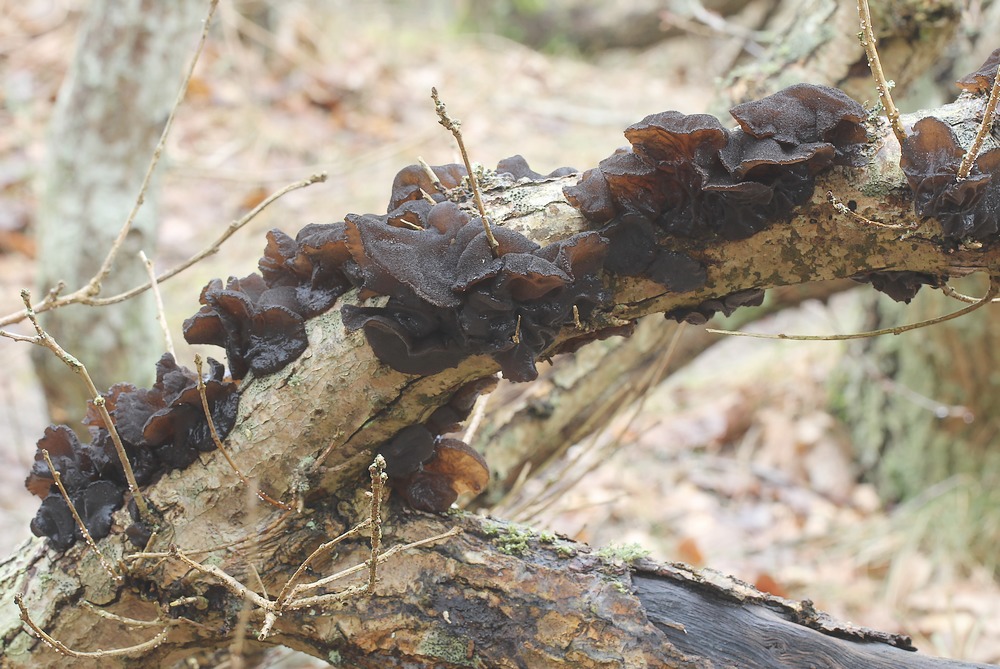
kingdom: Fungi
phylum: Basidiomycota
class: Agaricomycetes
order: Auriculariales
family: Auriculariaceae
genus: Exidia
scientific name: Exidia glandulosa
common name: ege-bævretop
